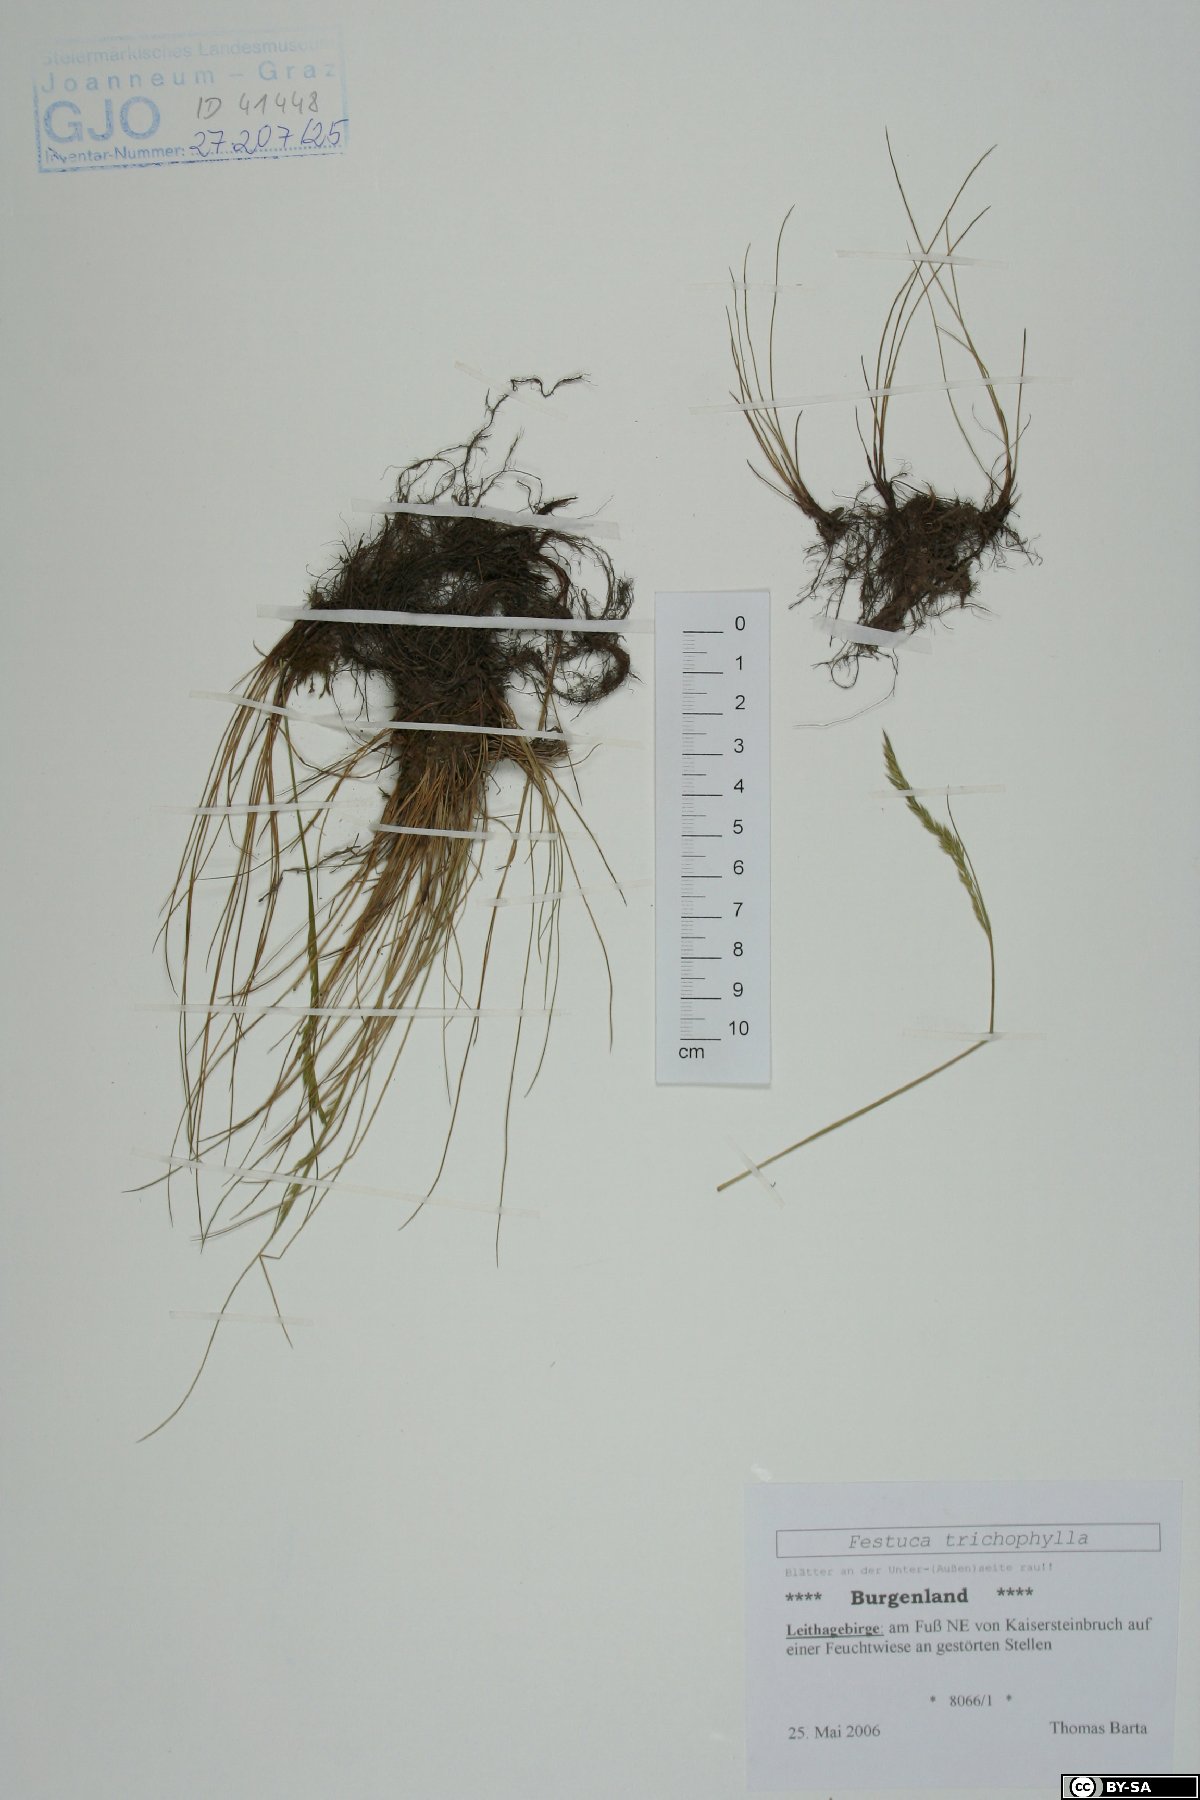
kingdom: Plantae
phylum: Tracheophyta
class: Liliopsida
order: Poales
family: Poaceae
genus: Festuca
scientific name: Festuca trichophylla
